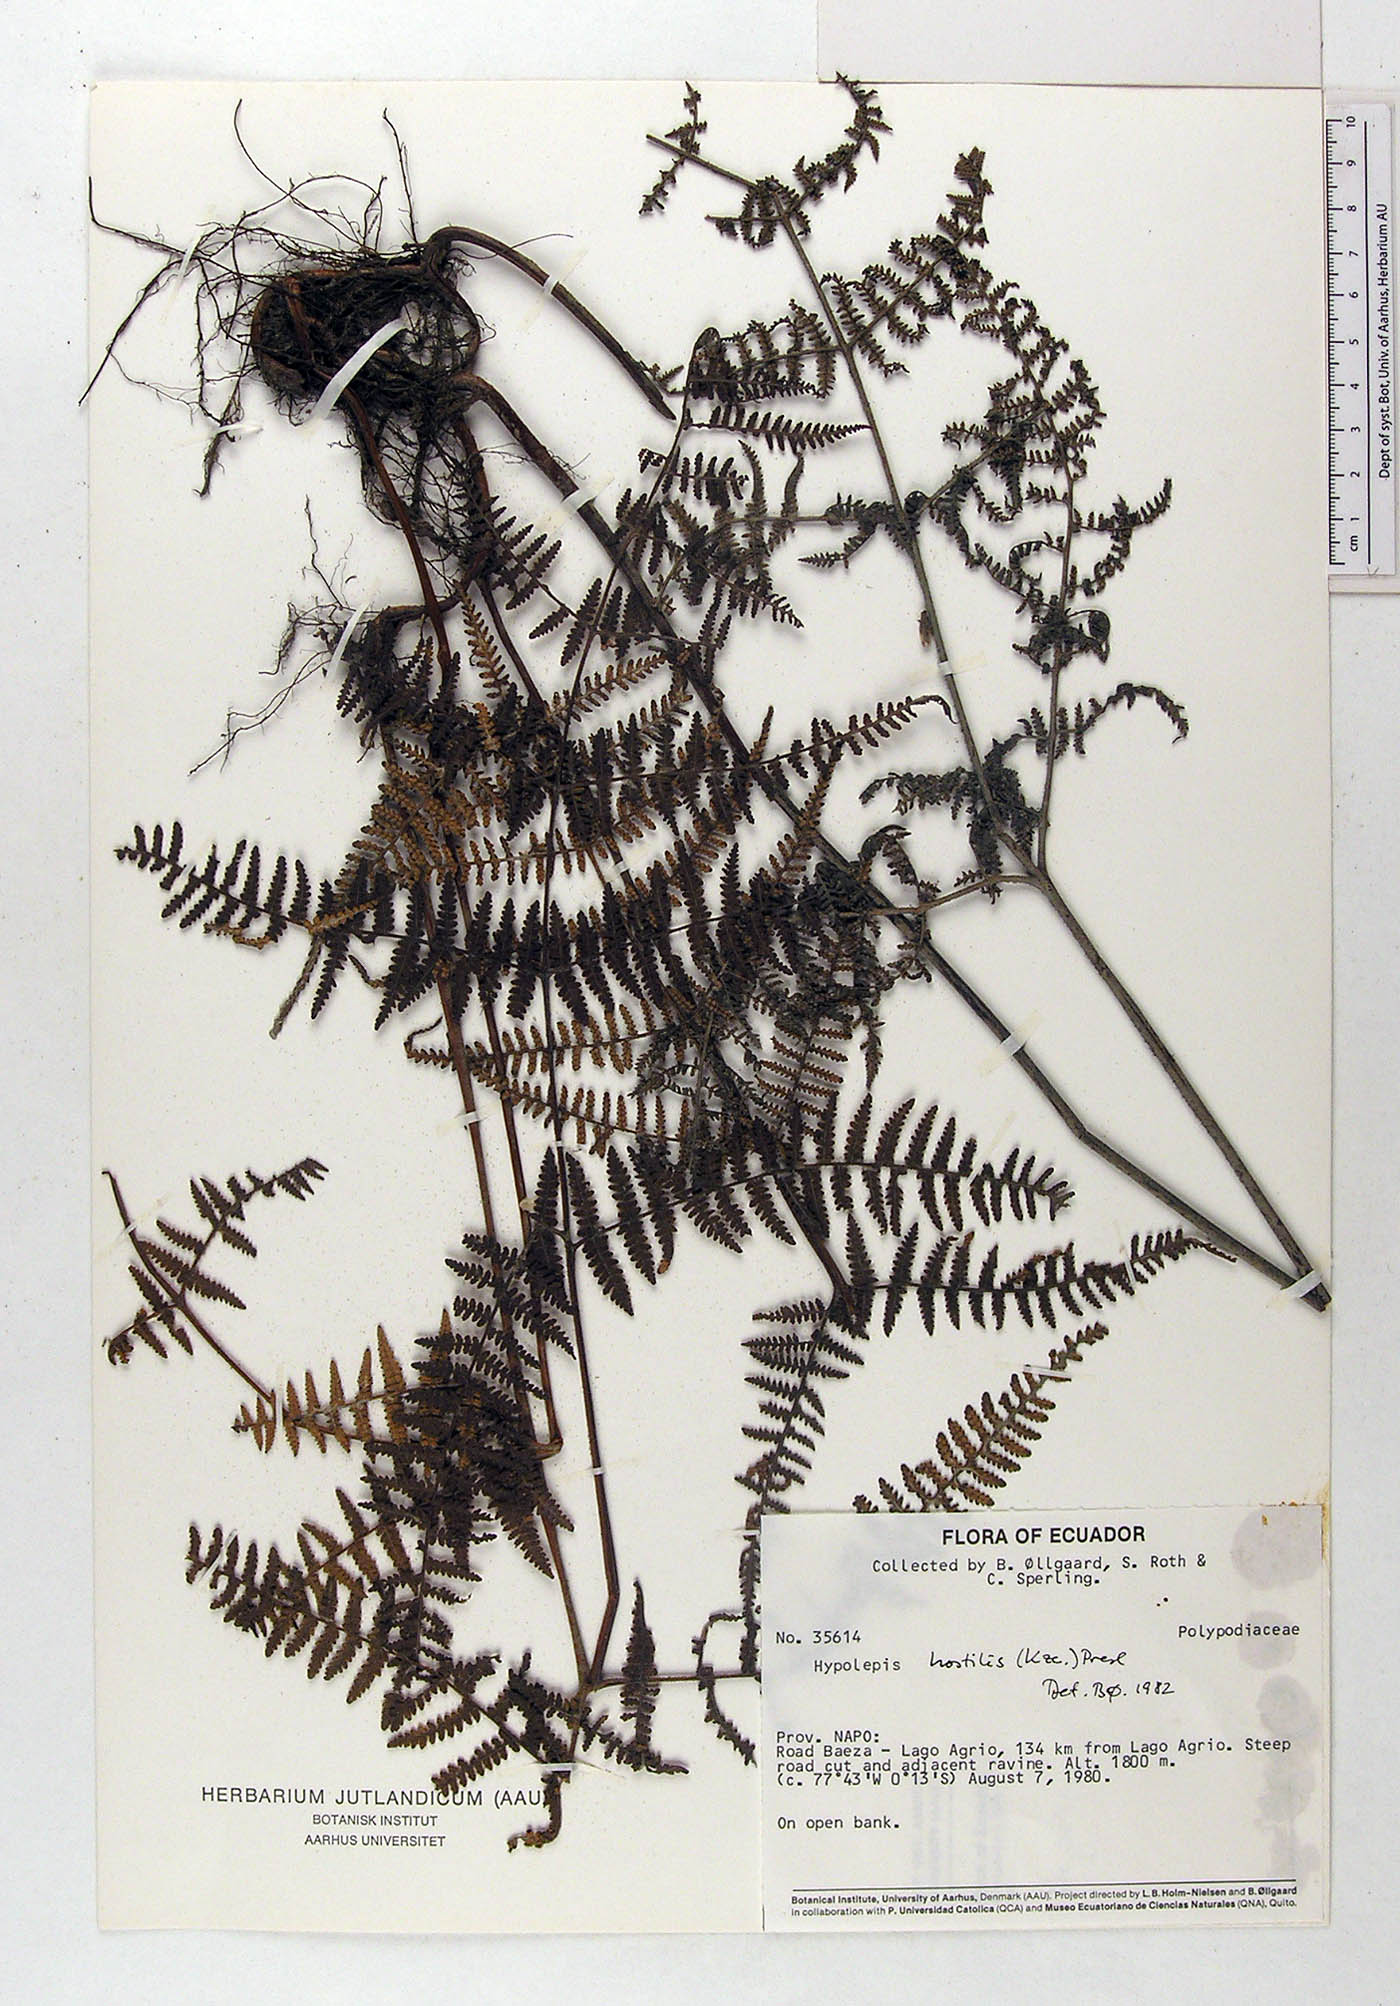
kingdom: Plantae
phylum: Tracheophyta
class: Polypodiopsida
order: Polypodiales
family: Dennstaedtiaceae
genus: Hypolepis
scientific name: Hypolepis hostilis
